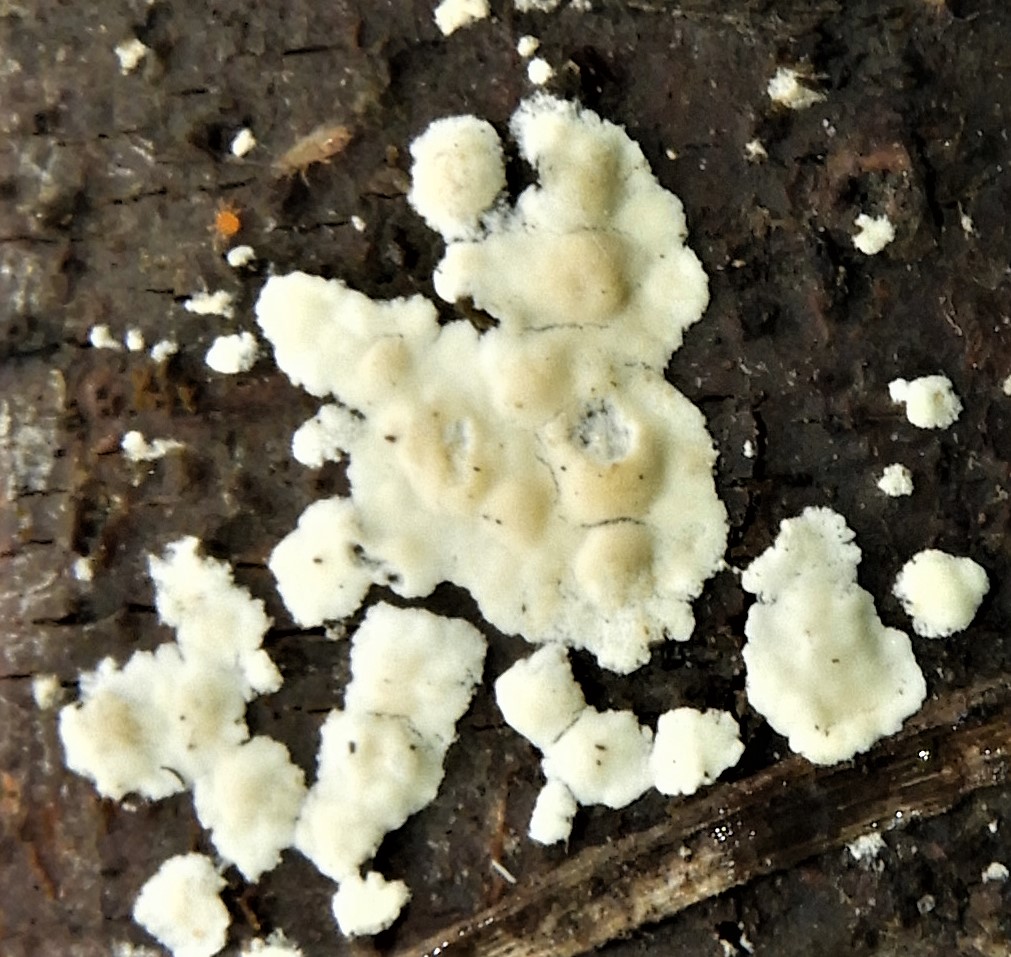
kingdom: Fungi
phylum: Basidiomycota
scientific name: Basidiomycota
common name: basidiesvampe
